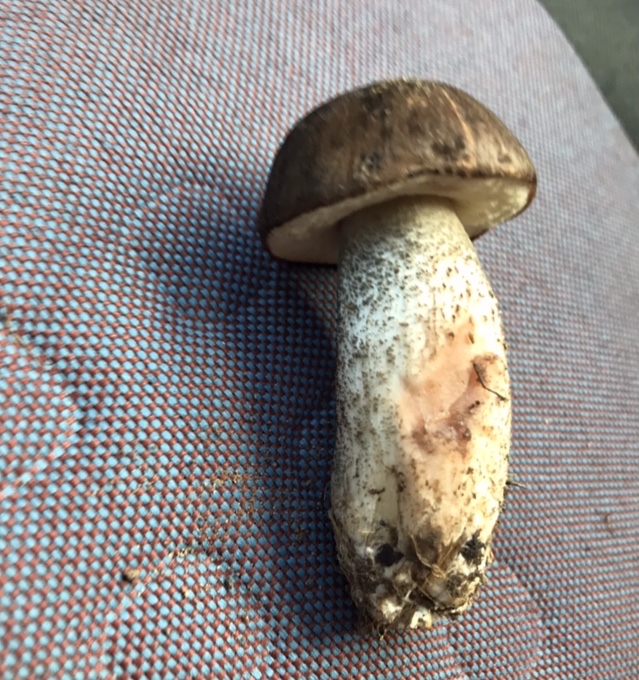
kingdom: Fungi
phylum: Basidiomycota
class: Agaricomycetes
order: Boletales
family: Boletaceae
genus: Leccinum
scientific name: Leccinum scabrum
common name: brun skælrørhat
